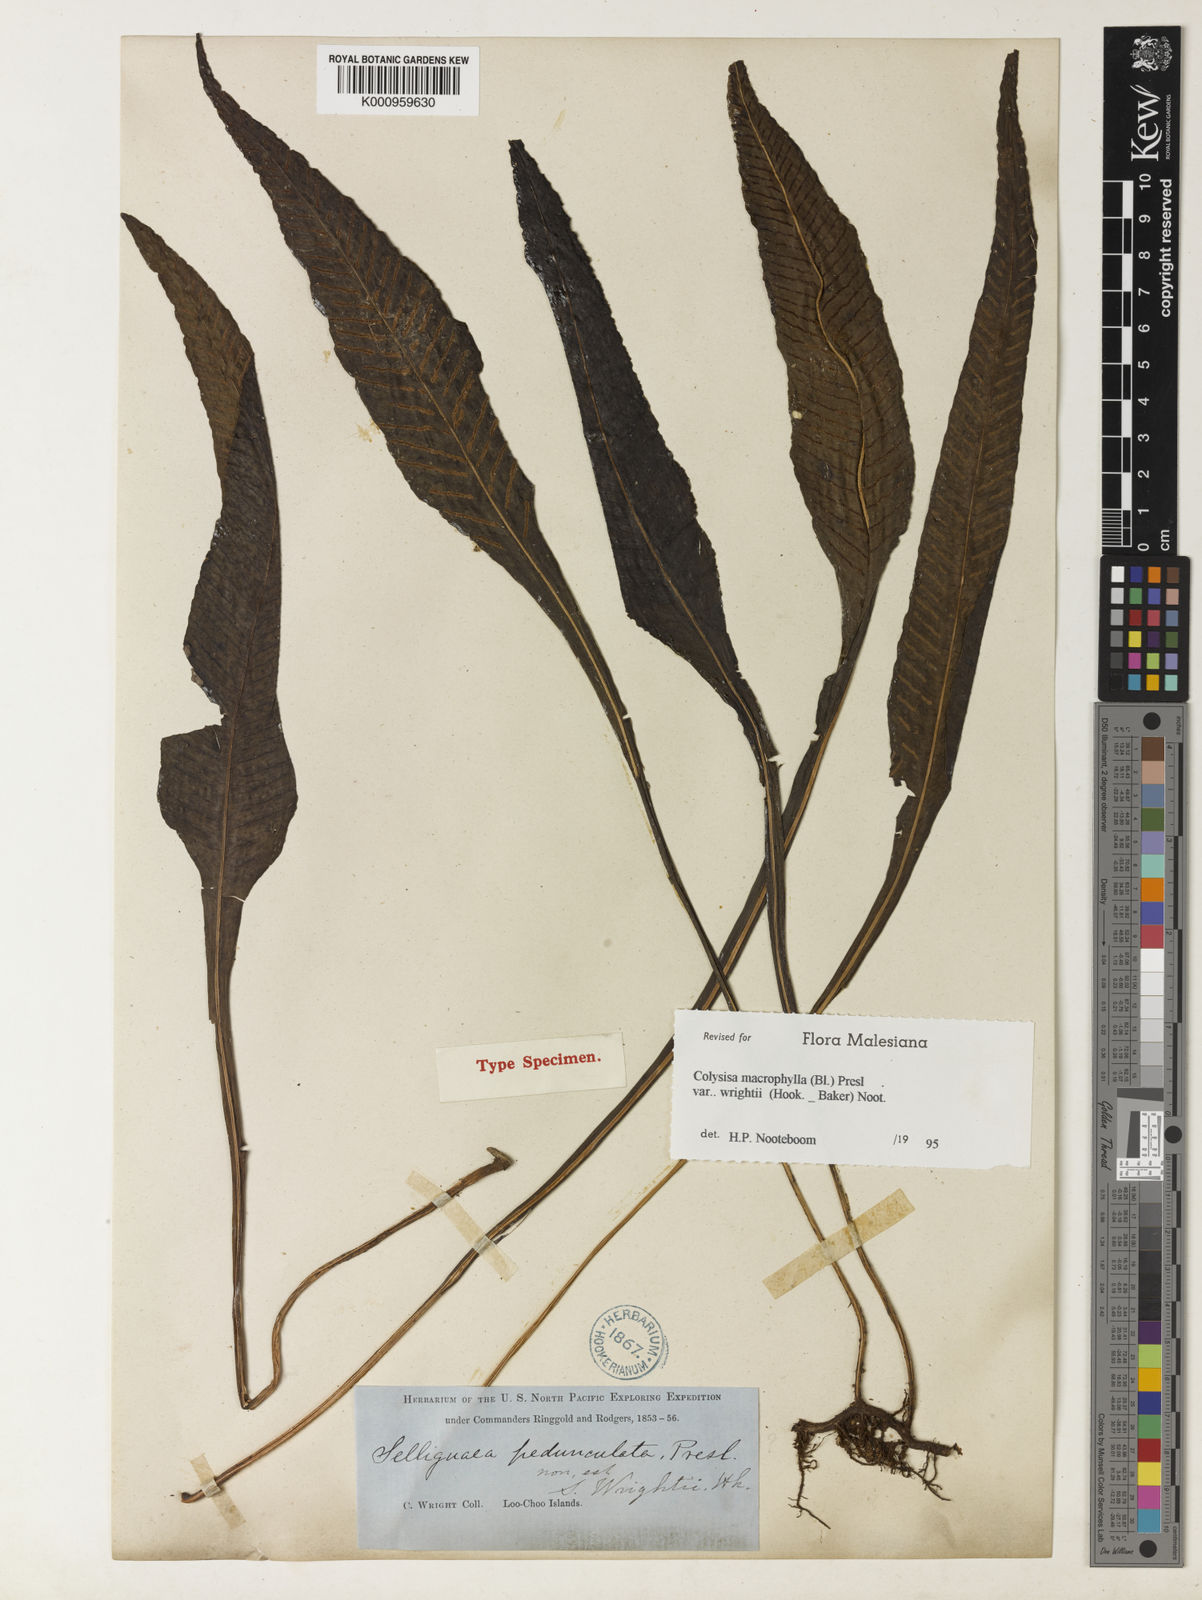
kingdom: Plantae
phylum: Tracheophyta
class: Polypodiopsida
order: Polypodiales
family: Polypodiaceae
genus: Leptochilus
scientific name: Leptochilus wrightii
